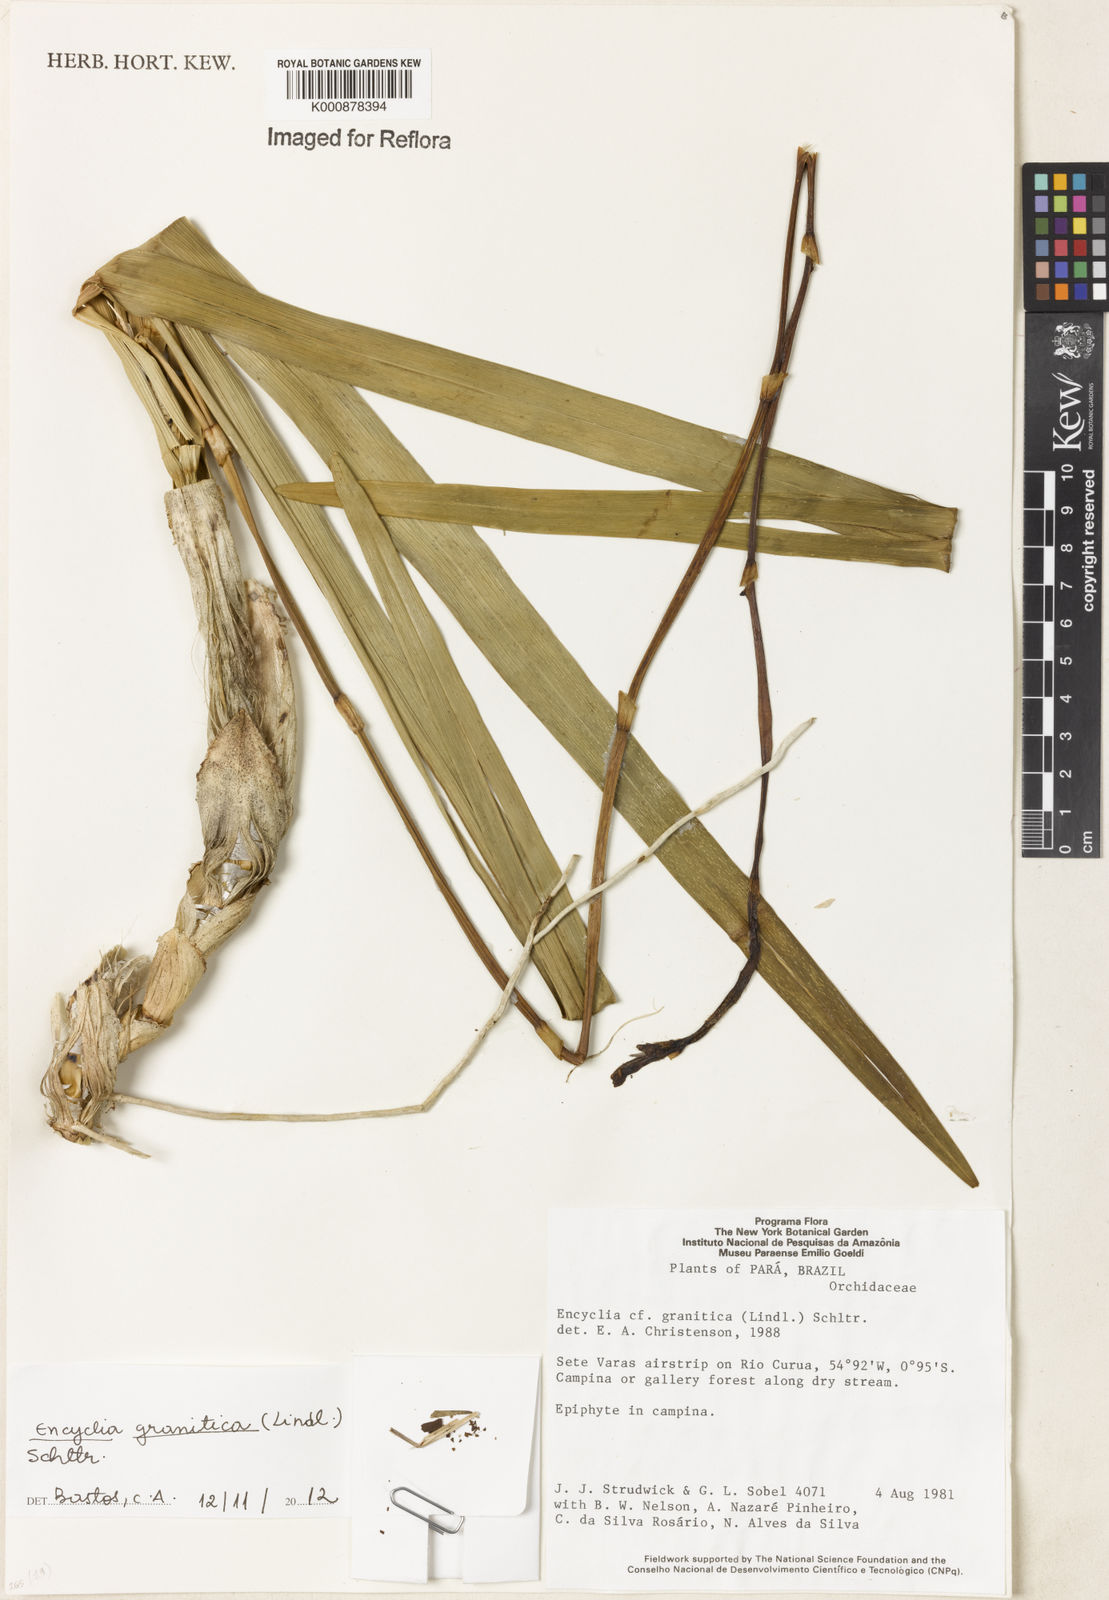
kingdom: Plantae
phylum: Tracheophyta
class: Liliopsida
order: Asparagales
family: Orchidaceae
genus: Encyclia
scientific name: Encyclia granitica
